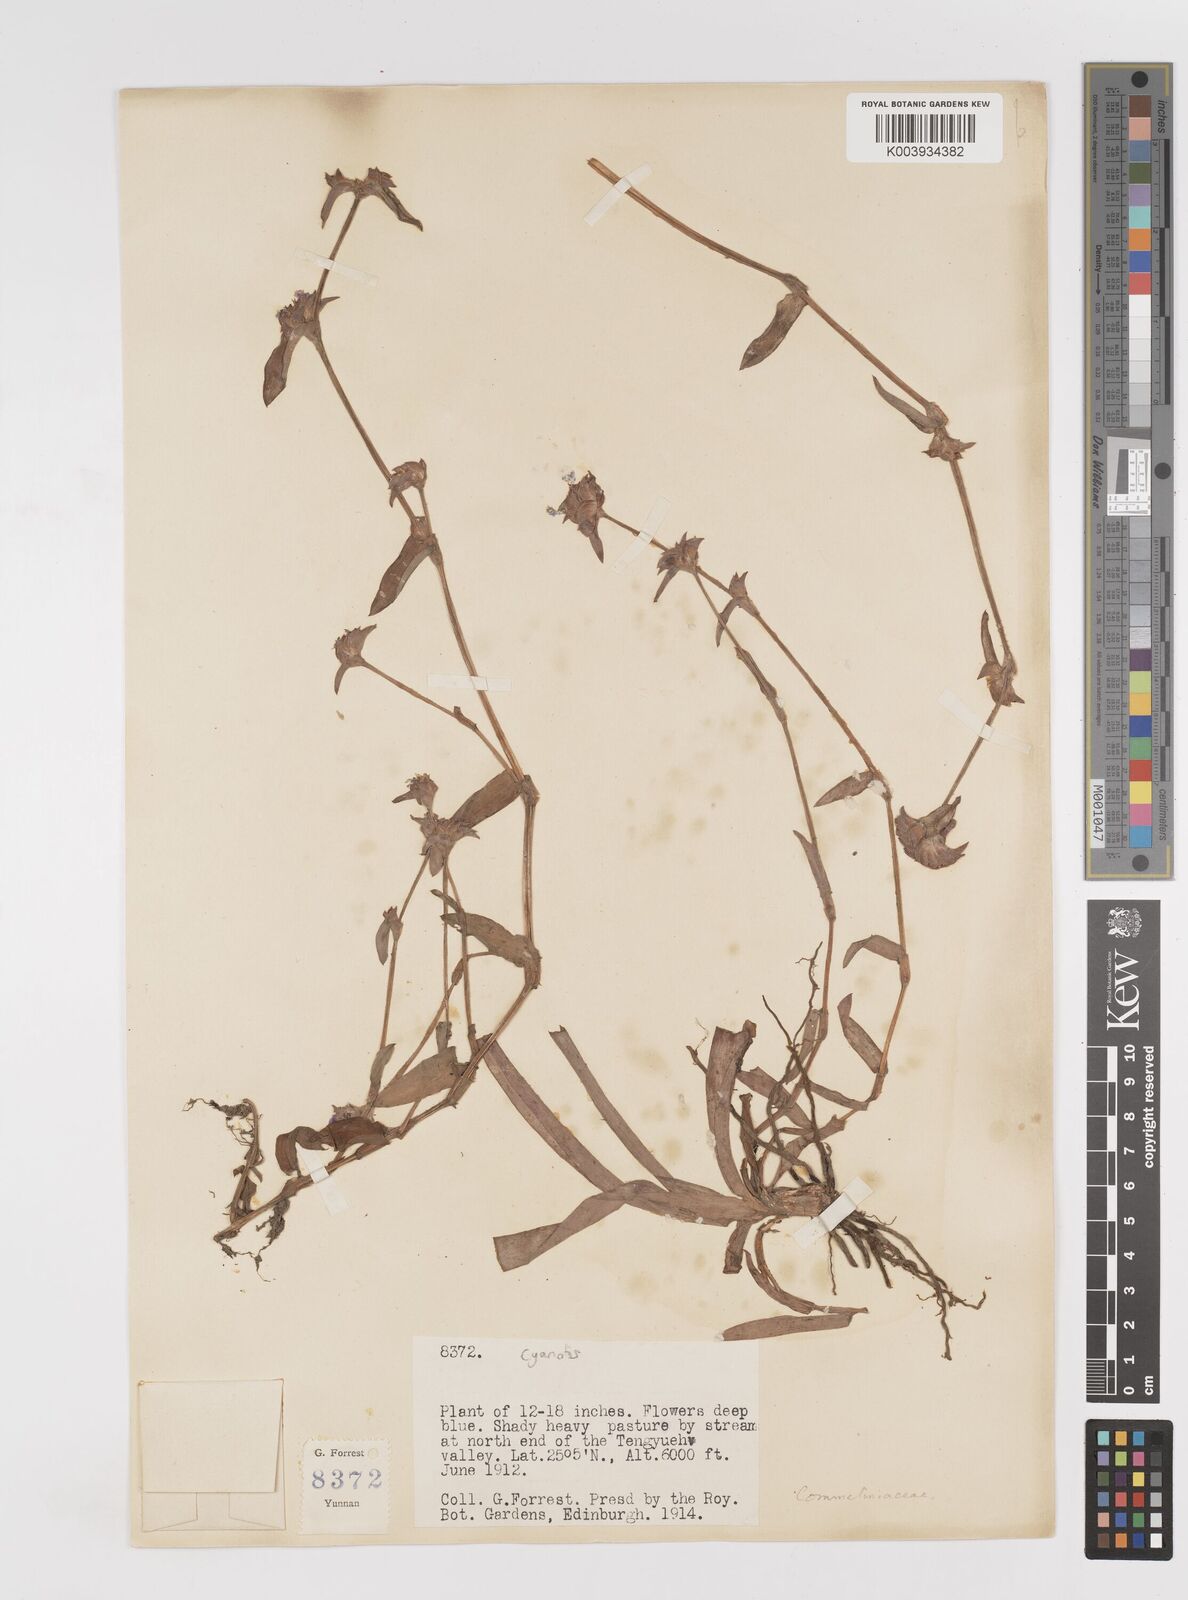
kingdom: Plantae
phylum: Tracheophyta
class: Liliopsida
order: Commelinales
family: Commelinaceae
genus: Cyanotis
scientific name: Cyanotis
